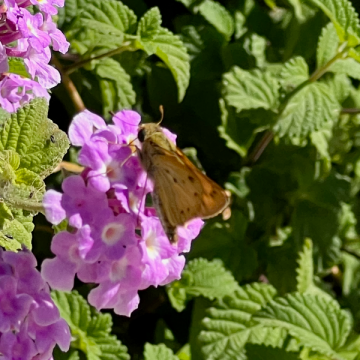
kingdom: Animalia
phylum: Arthropoda
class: Insecta
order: Lepidoptera
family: Hesperiidae
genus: Hylephila
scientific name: Hylephila phyleus
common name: Fiery Skipper
